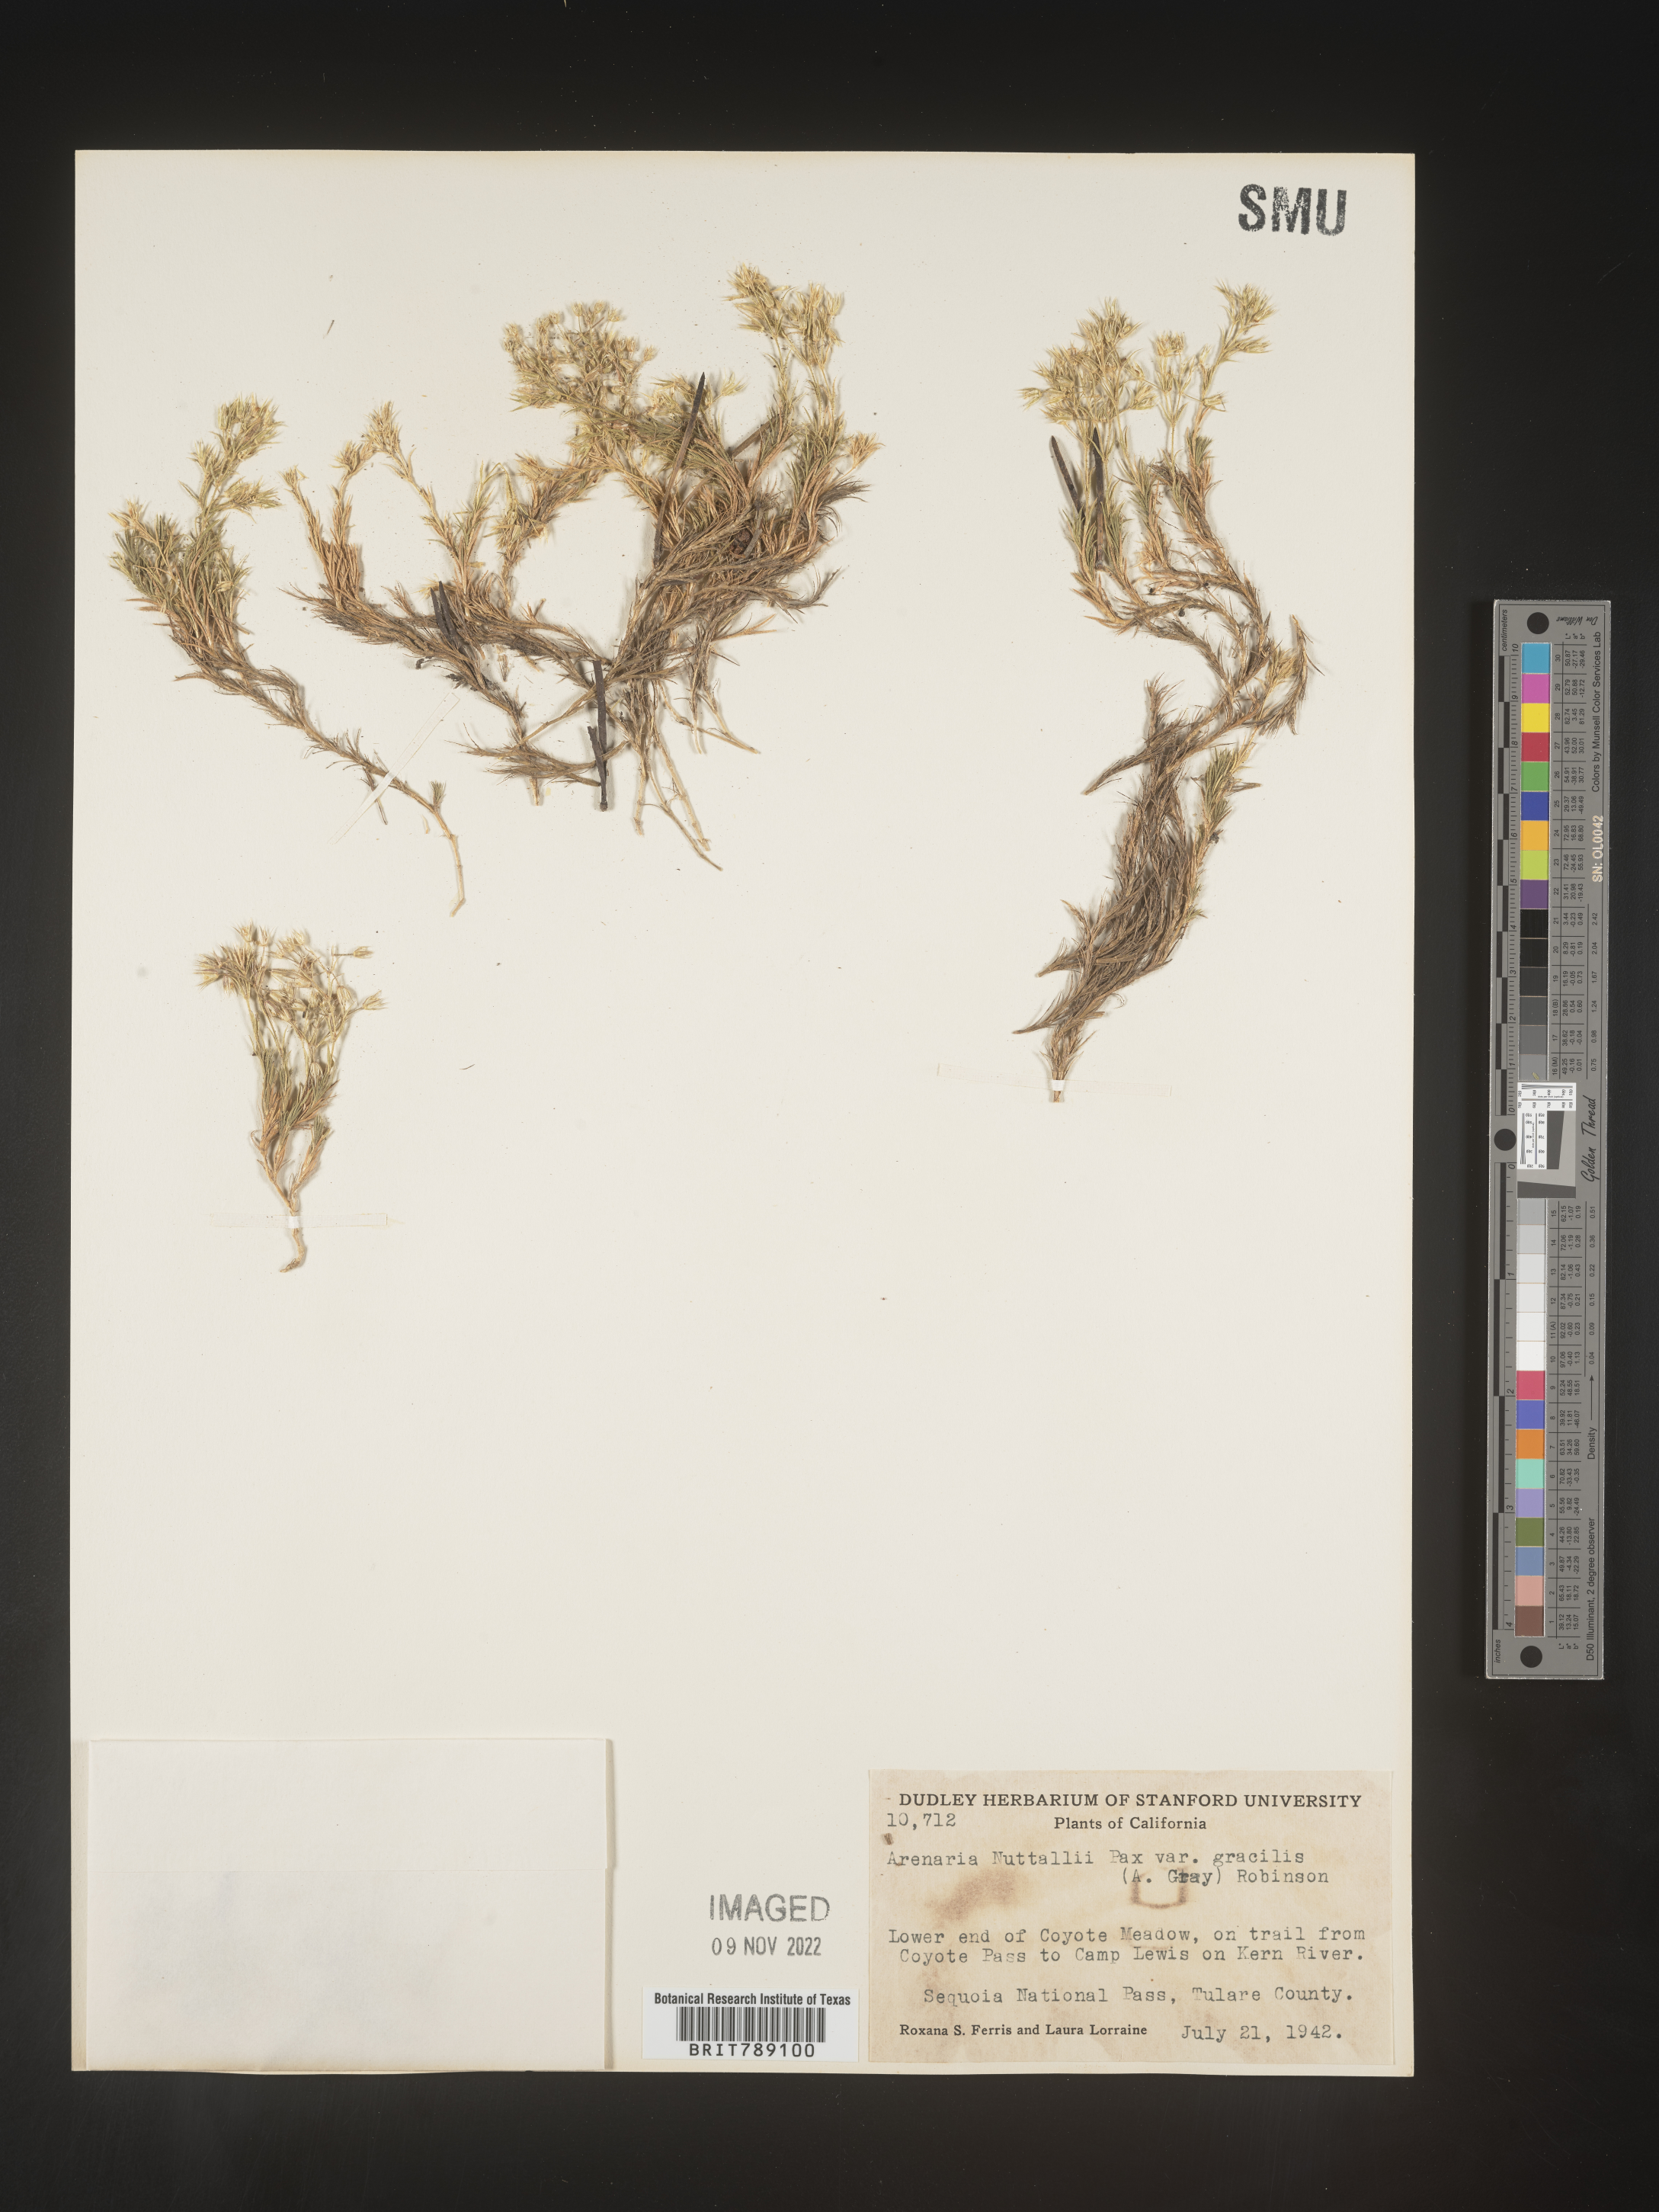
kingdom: Plantae
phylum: Tracheophyta
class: Magnoliopsida
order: Caryophyllales
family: Caryophyllaceae
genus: Arenaria
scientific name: Arenaria
